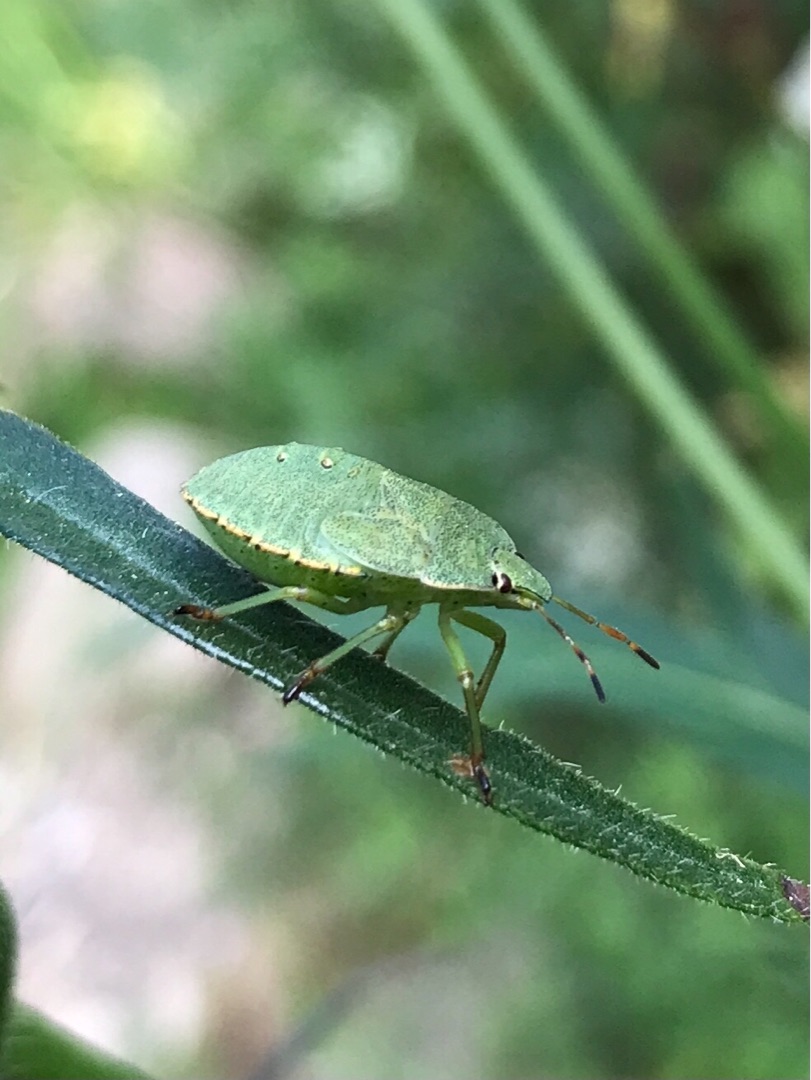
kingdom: Animalia
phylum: Arthropoda
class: Insecta
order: Hemiptera
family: Pentatomidae
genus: Palomena
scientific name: Palomena prasina
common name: Grøn bredtæge
